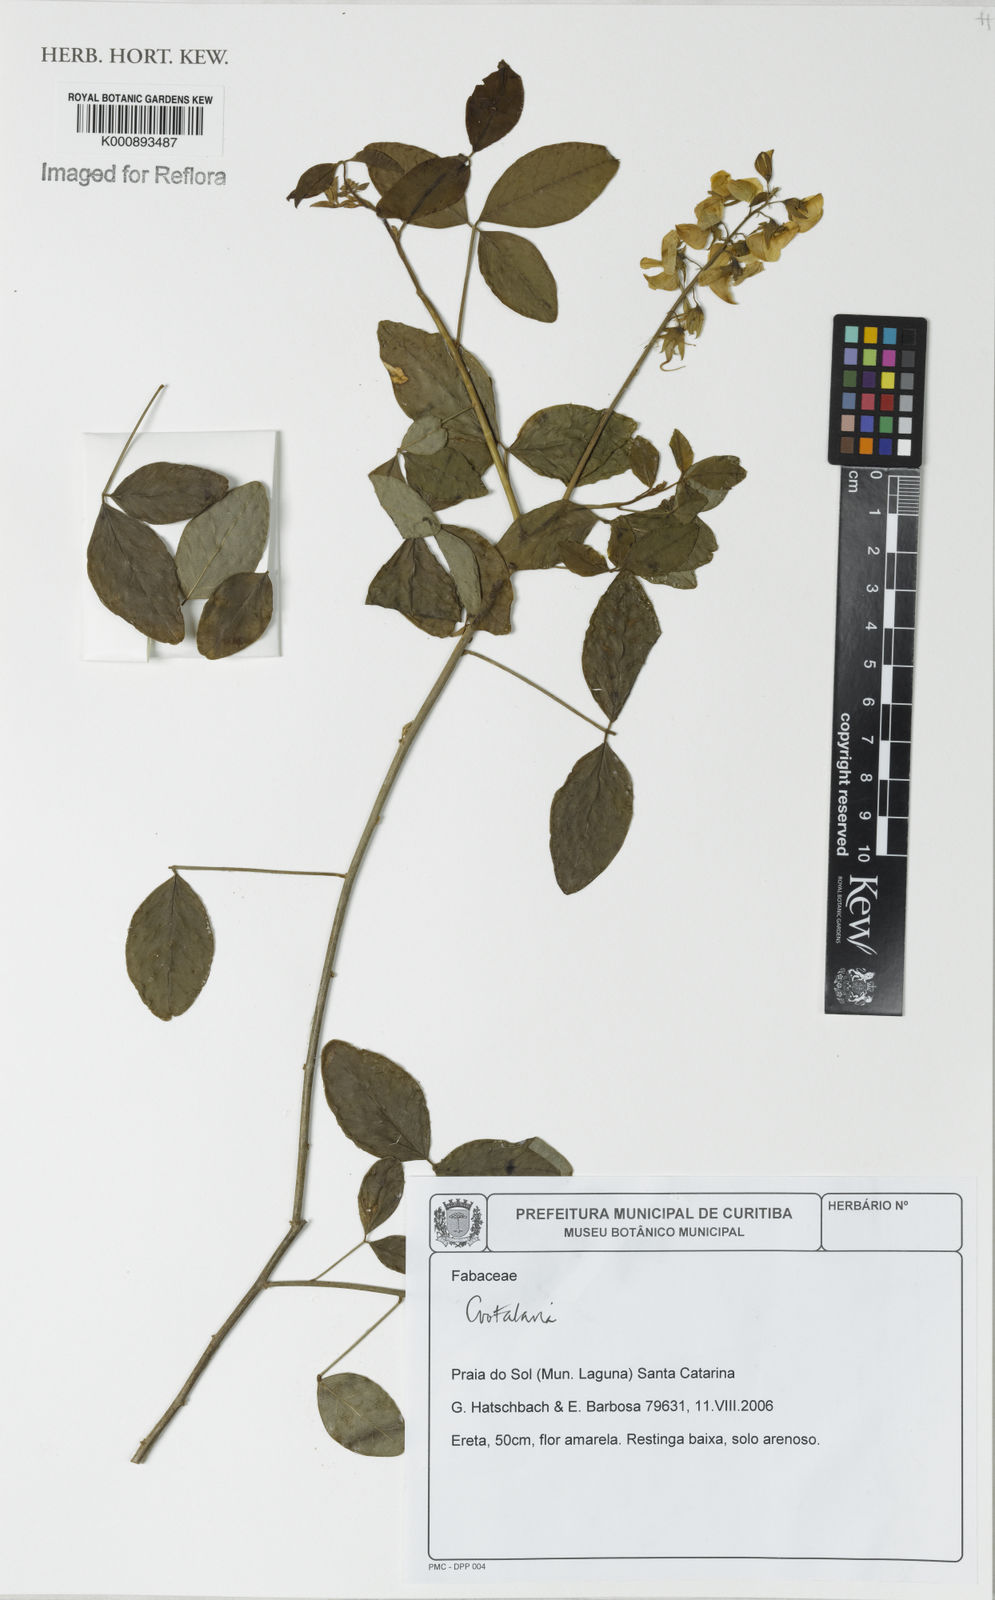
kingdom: Plantae
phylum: Tracheophyta
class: Magnoliopsida
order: Fabales
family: Fabaceae
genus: Crotalaria
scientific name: Crotalaria vitellina
